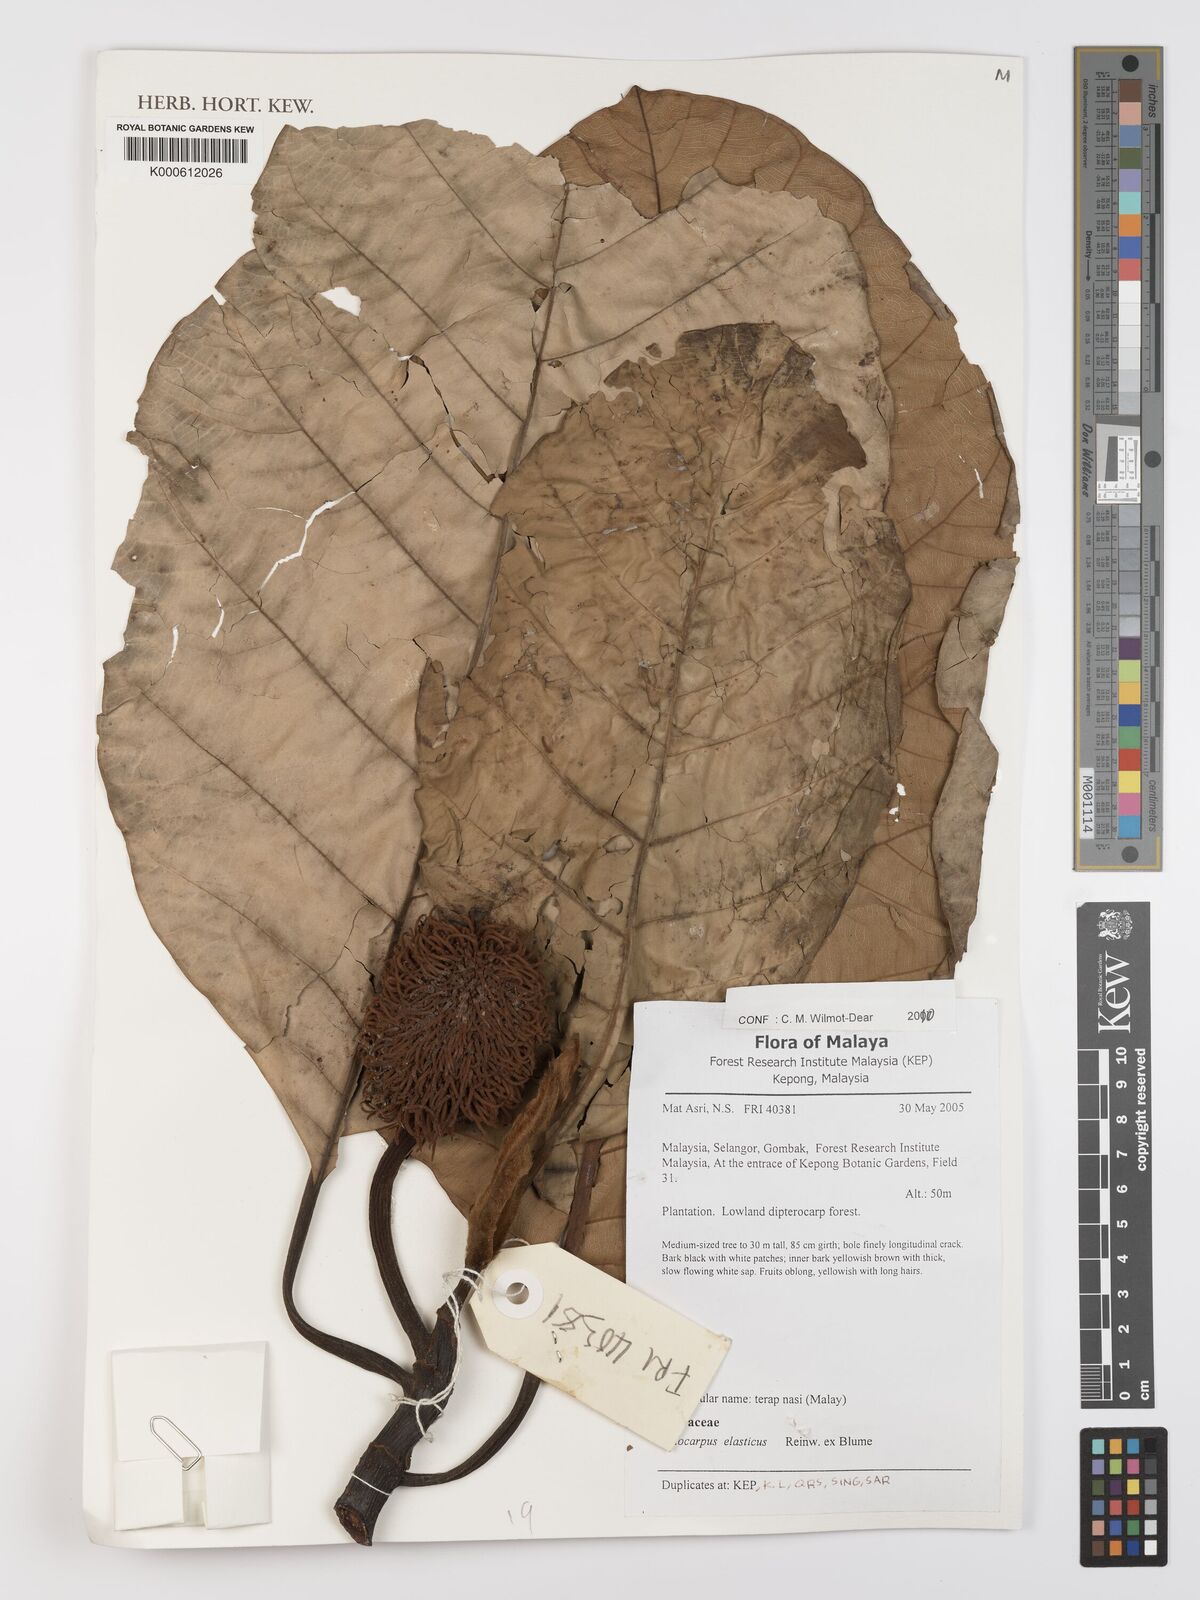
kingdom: Plantae
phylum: Tracheophyta
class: Magnoliopsida
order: Rosales
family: Moraceae
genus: Artocarpus
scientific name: Artocarpus elasticus
